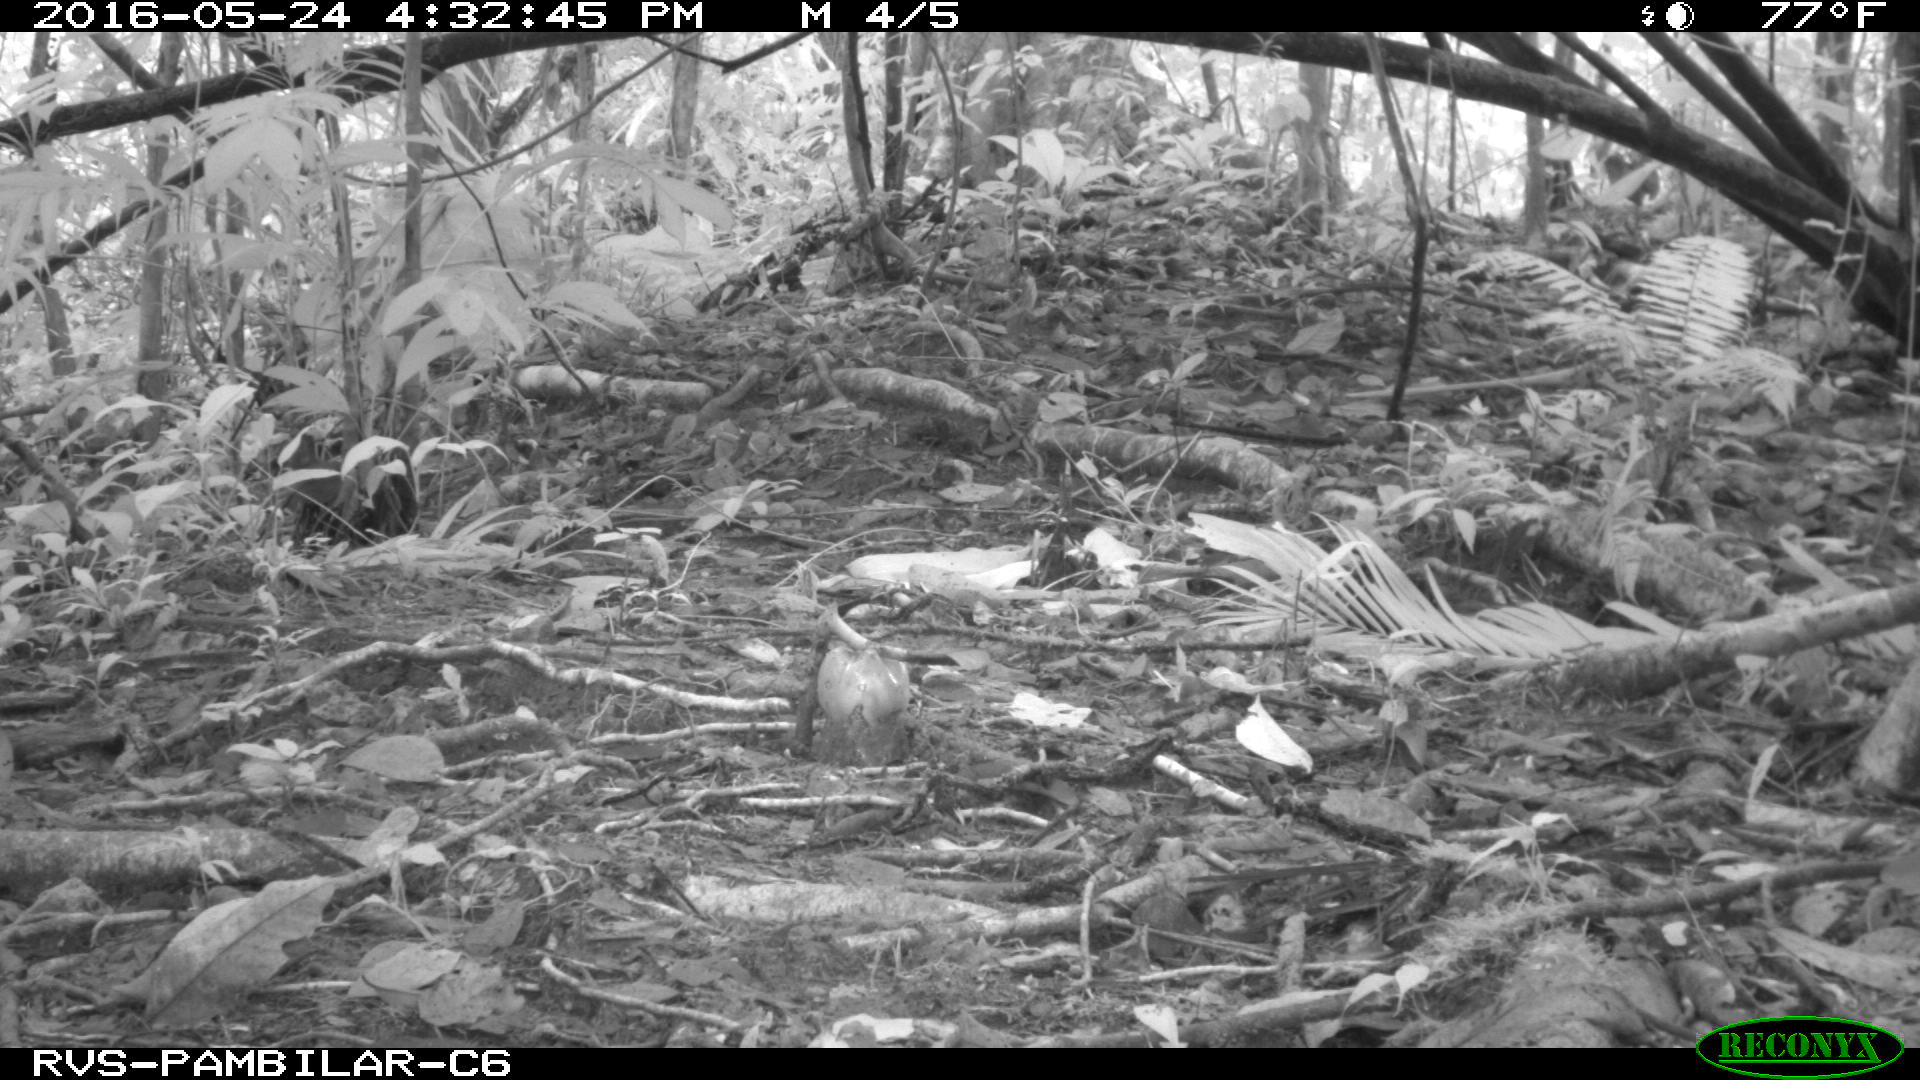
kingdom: Animalia
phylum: Chordata
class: Mammalia
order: Rodentia
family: Dasyproctidae
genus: Dasyprocta
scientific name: Dasyprocta punctata
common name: Central american agouti
